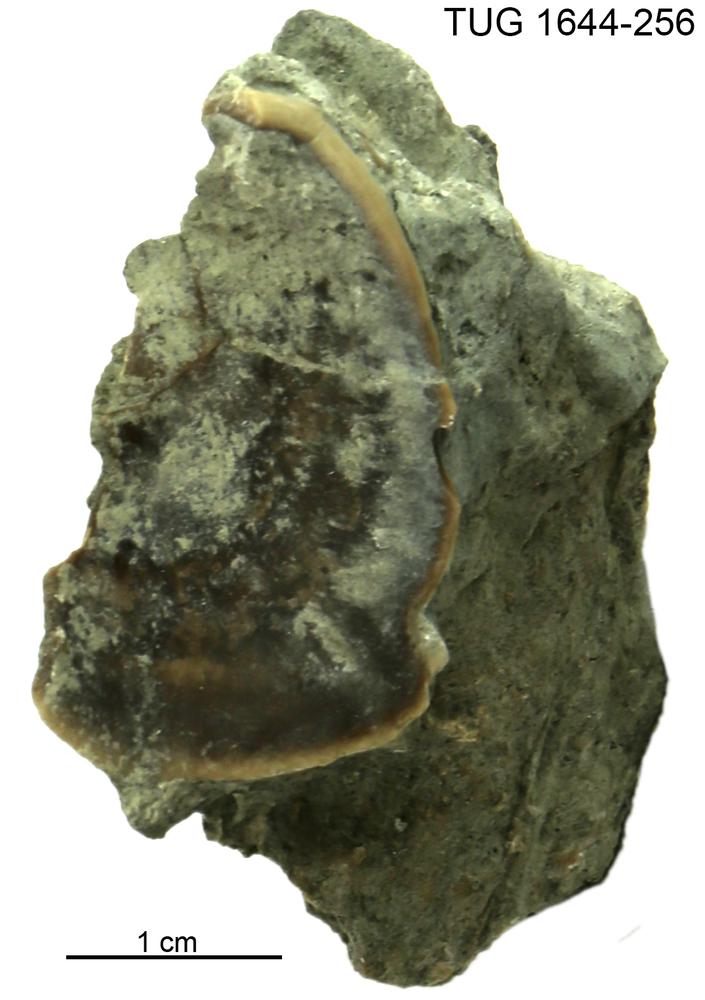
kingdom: Animalia
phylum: Mollusca
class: Monoplacophora
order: Tryblidiida
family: Tryblidiidae
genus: Pilina
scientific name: Pilina
